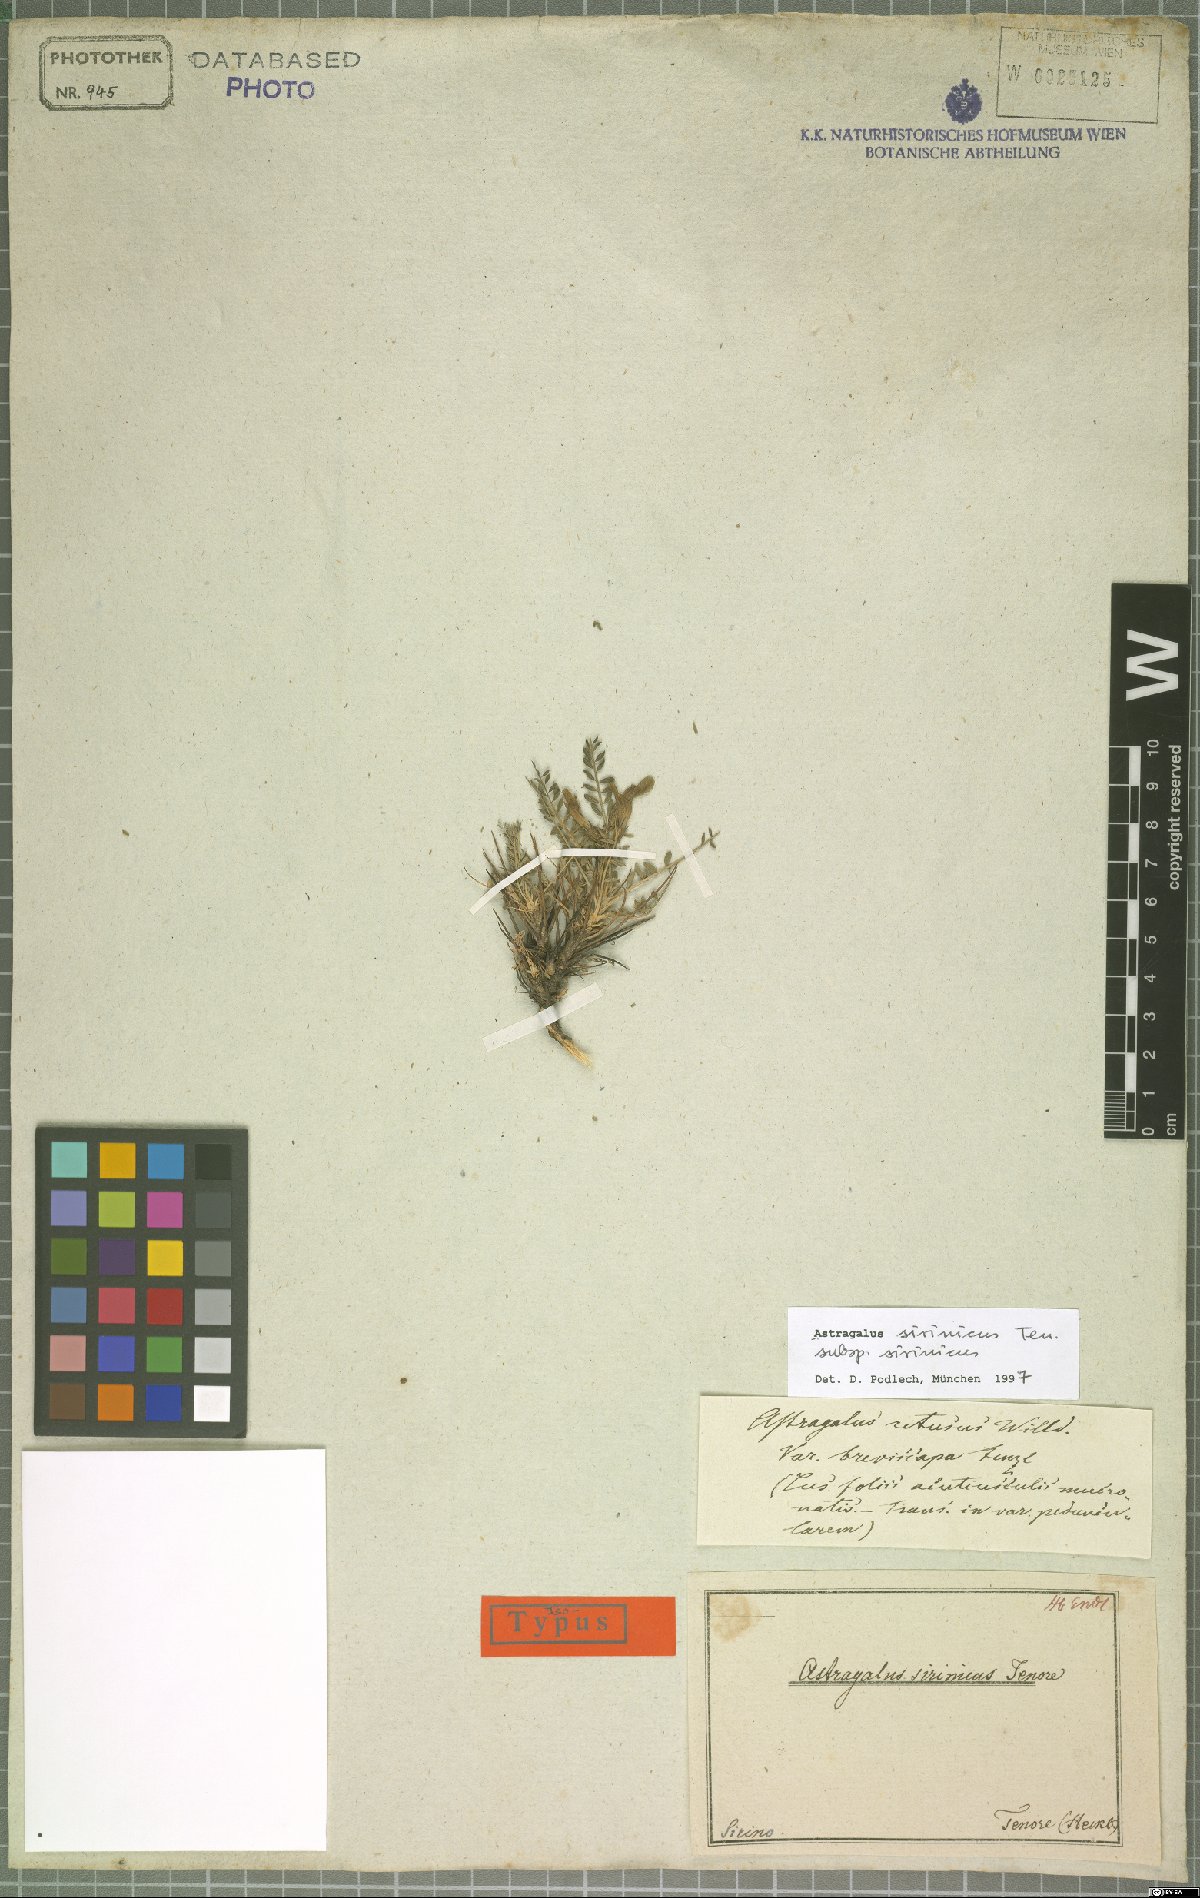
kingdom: Plantae
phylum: Tracheophyta
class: Magnoliopsida
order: Fabales
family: Fabaceae
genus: Astragalus
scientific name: Astragalus sirinicus
